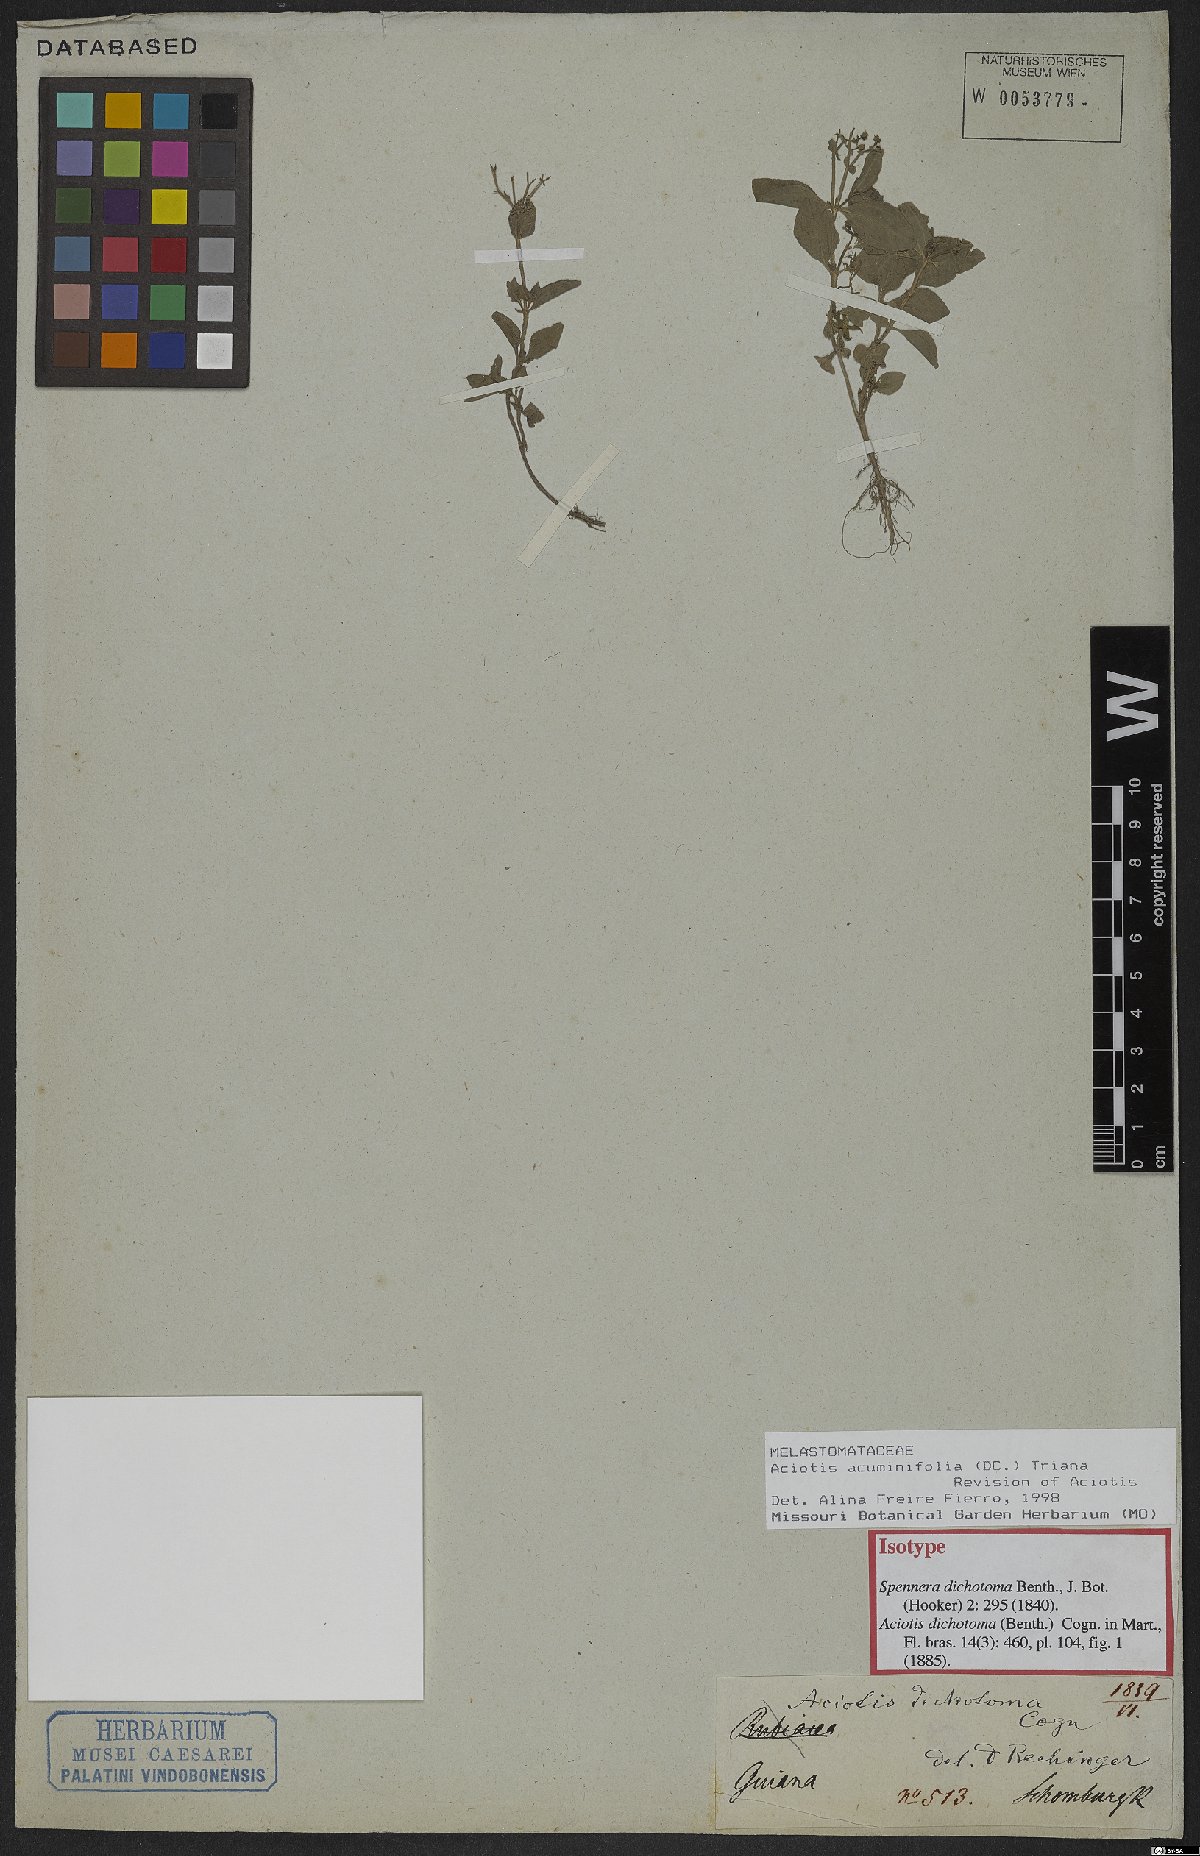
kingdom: Plantae
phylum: Tracheophyta
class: Magnoliopsida
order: Myrtales
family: Melastomataceae
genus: Aciotis
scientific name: Aciotis acuminifolia
